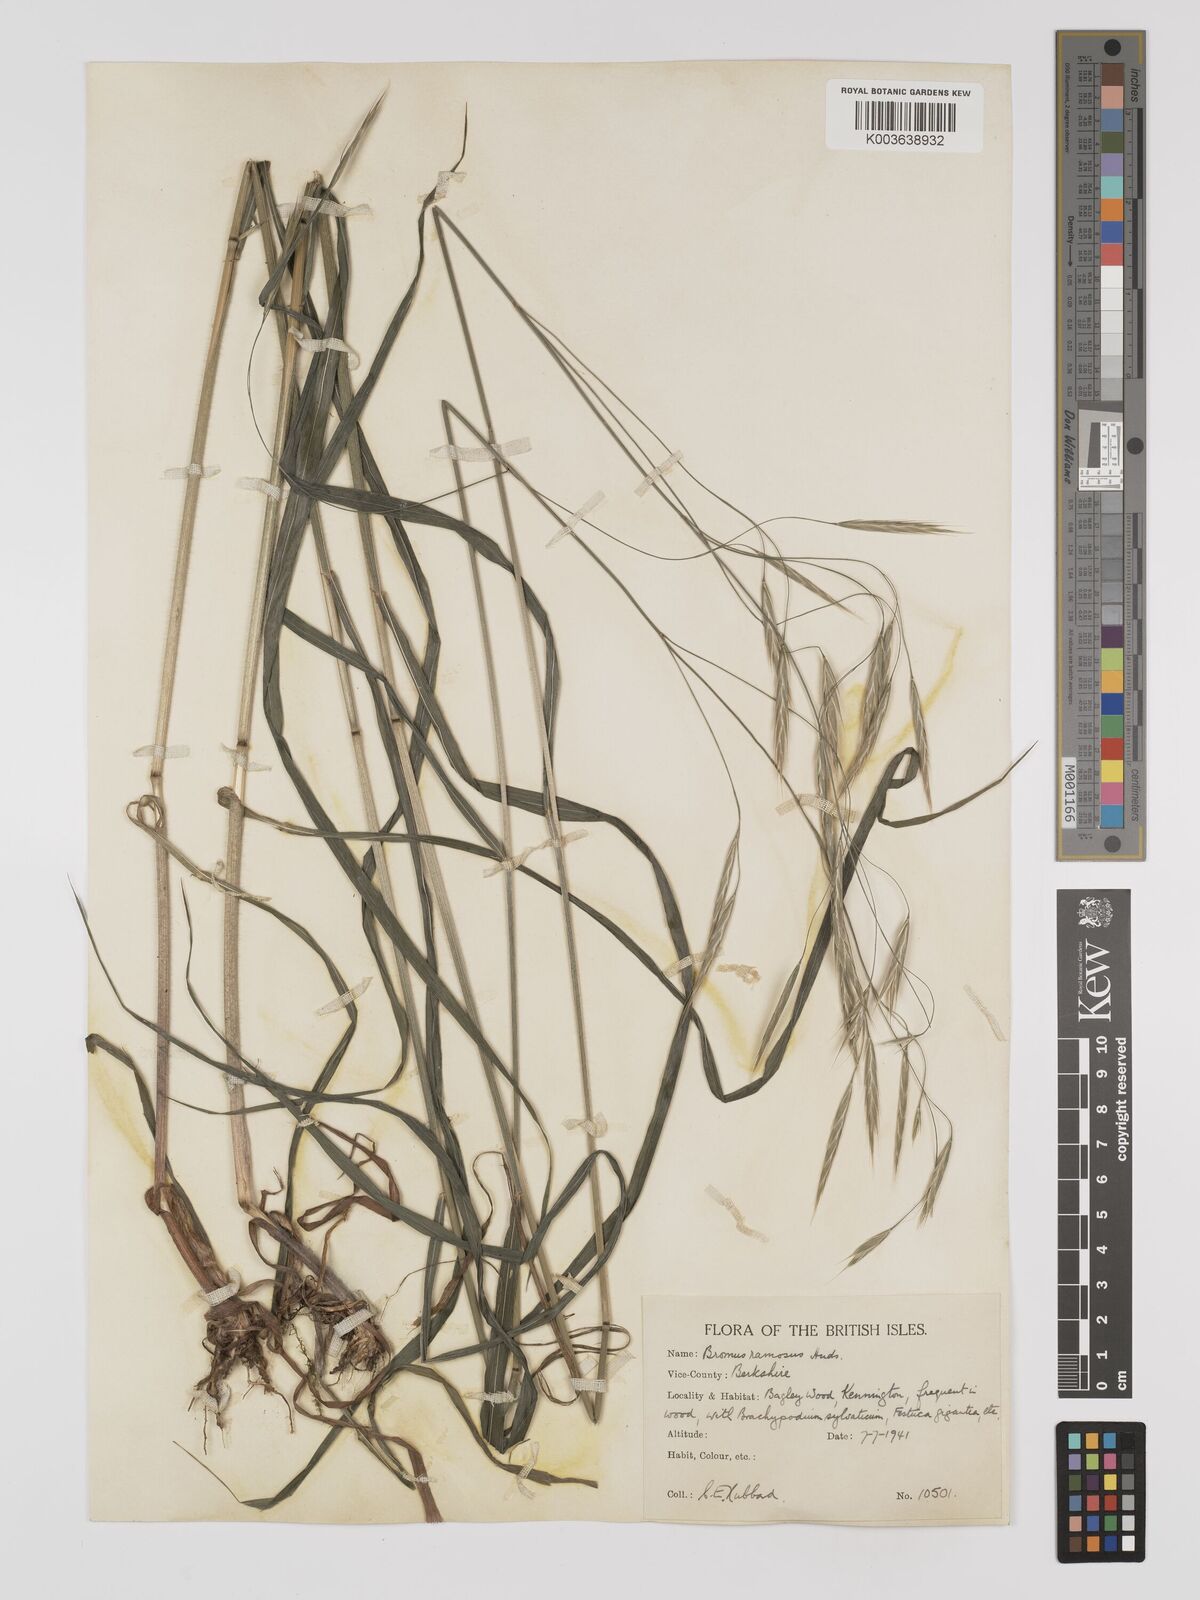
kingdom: Plantae
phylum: Tracheophyta
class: Liliopsida
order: Poales
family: Poaceae
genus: Bromus
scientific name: Bromus ramosus
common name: Hairy brome
